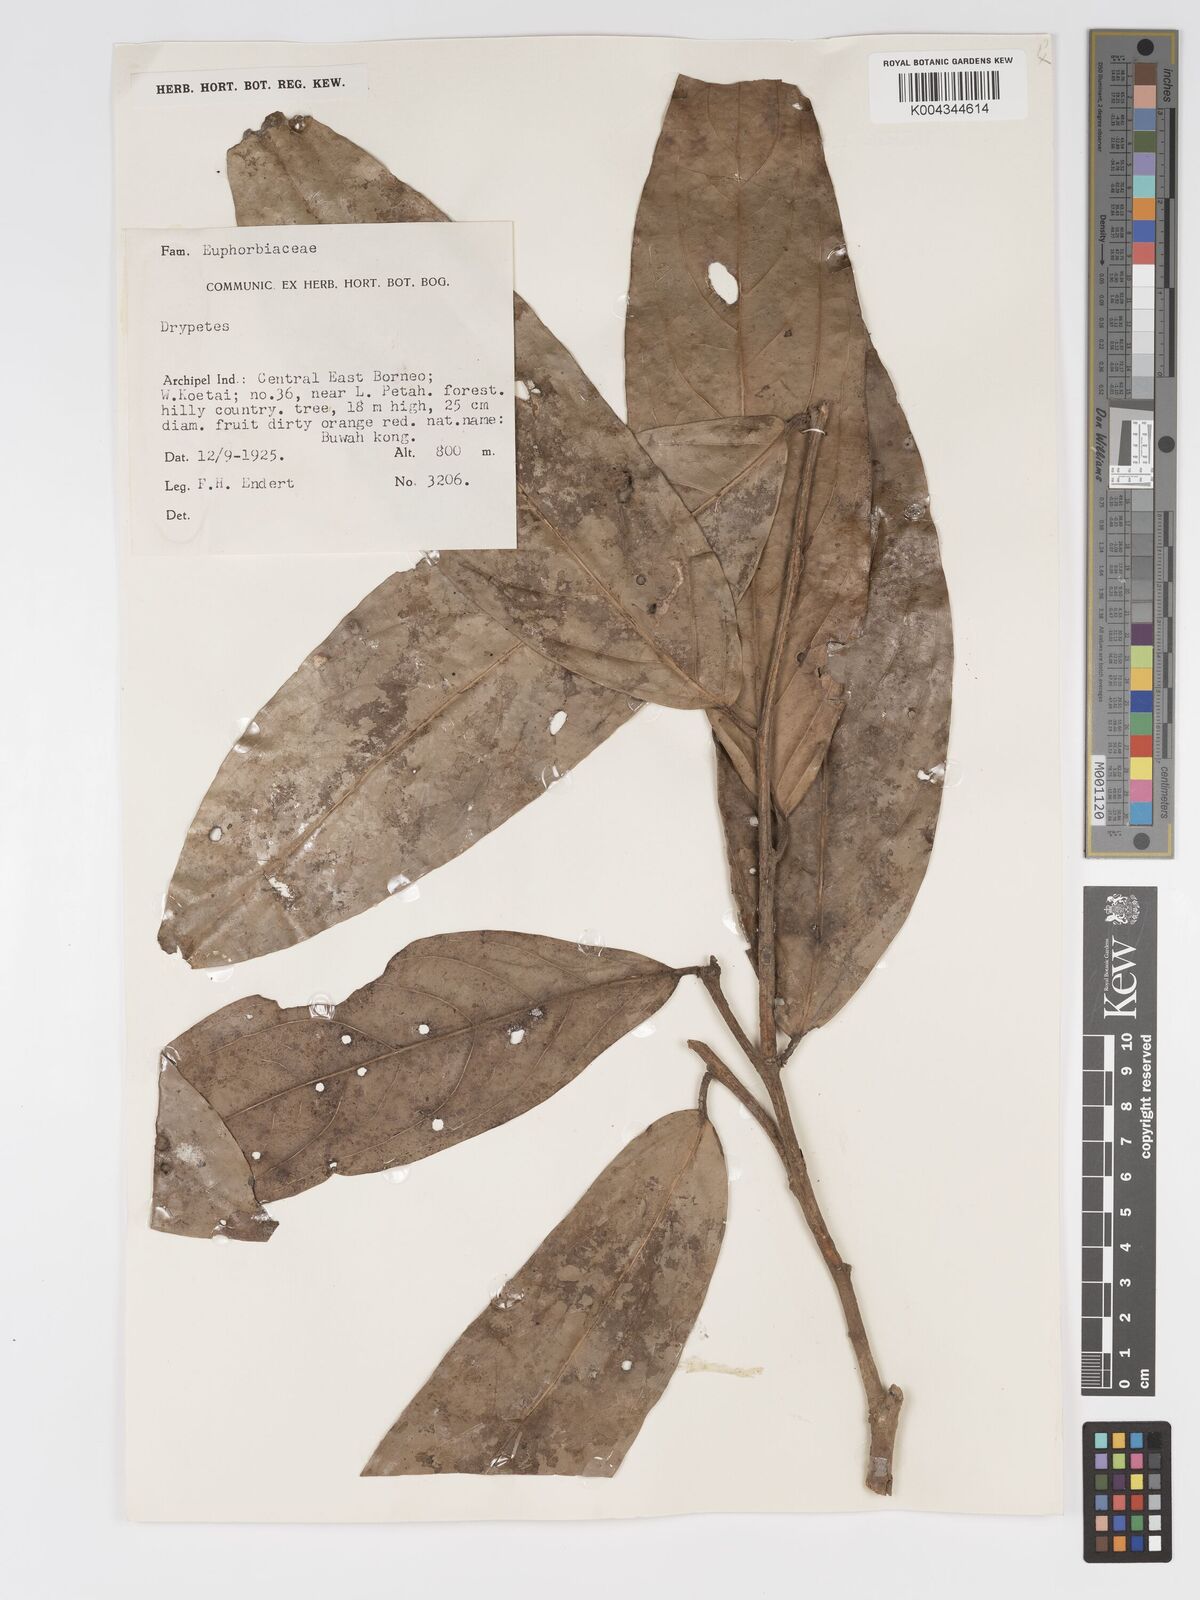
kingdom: Plantae
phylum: Tracheophyta
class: Magnoliopsida
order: Malpighiales
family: Putranjivaceae
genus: Drypetes
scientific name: Drypetes longifolia
